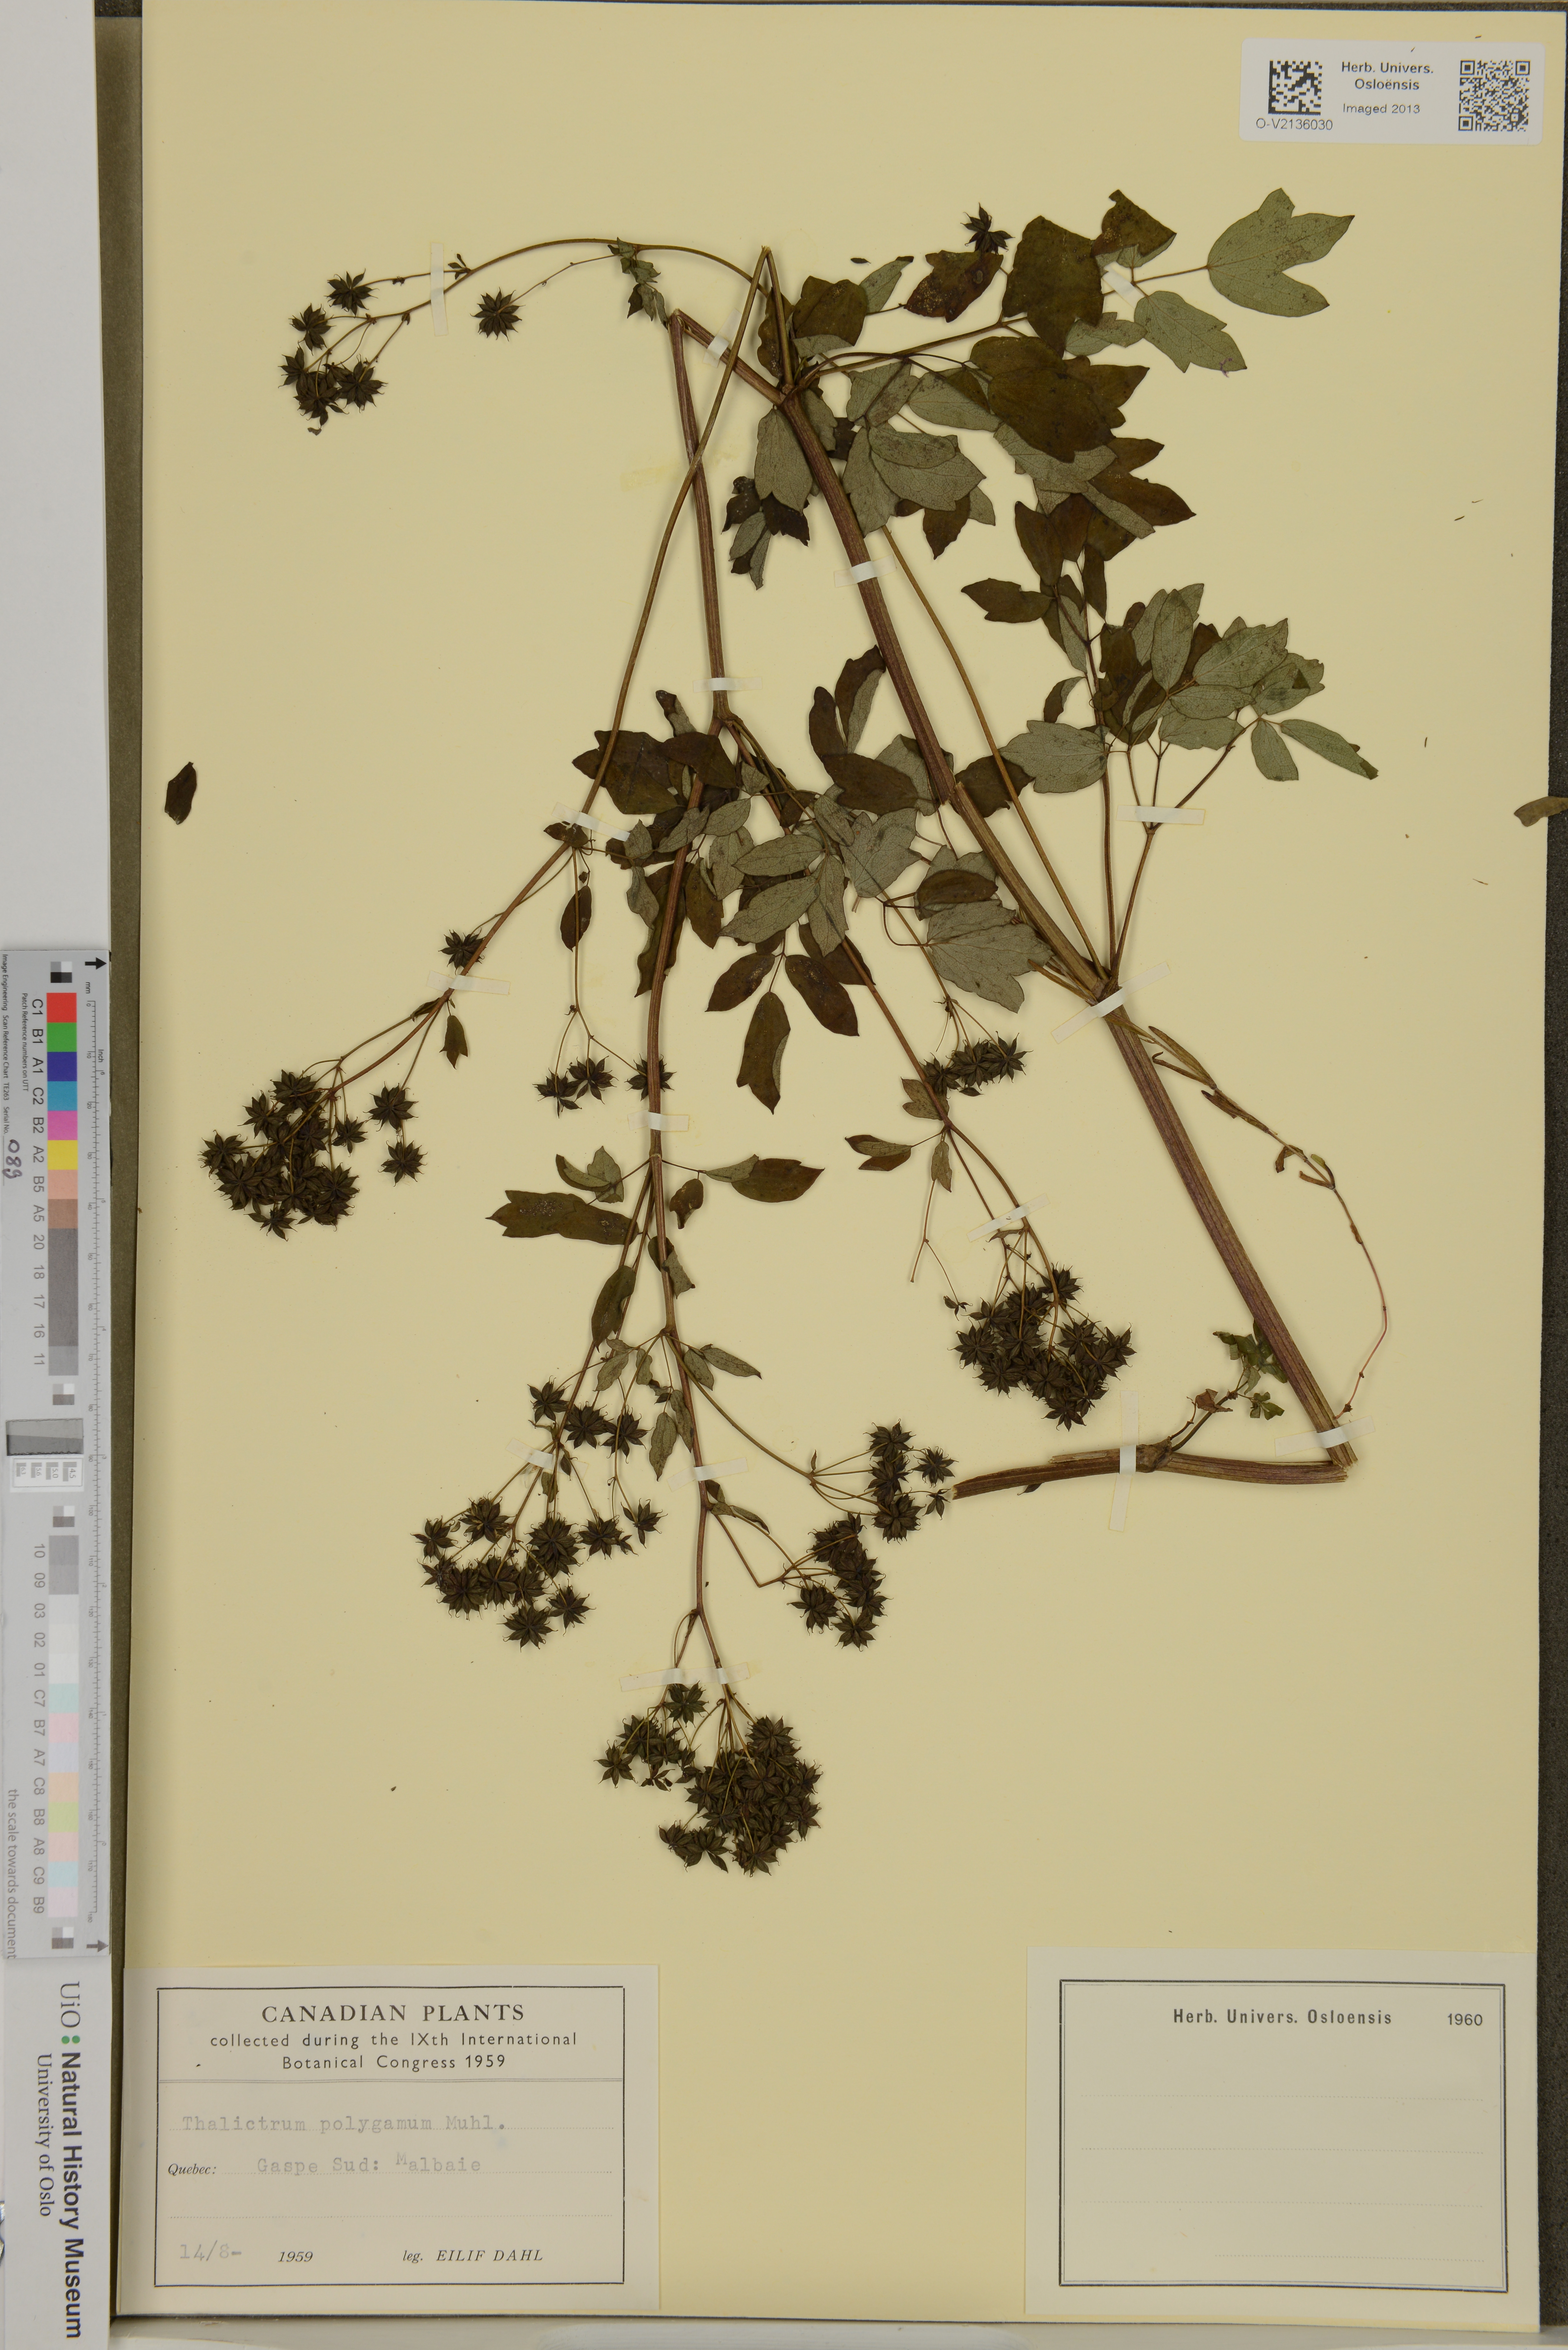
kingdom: Plantae
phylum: Tracheophyta
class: Magnoliopsida
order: Ranunculales
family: Ranunculaceae
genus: Thalictrum
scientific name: Thalictrum pubescens
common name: King-of-the-meadow
